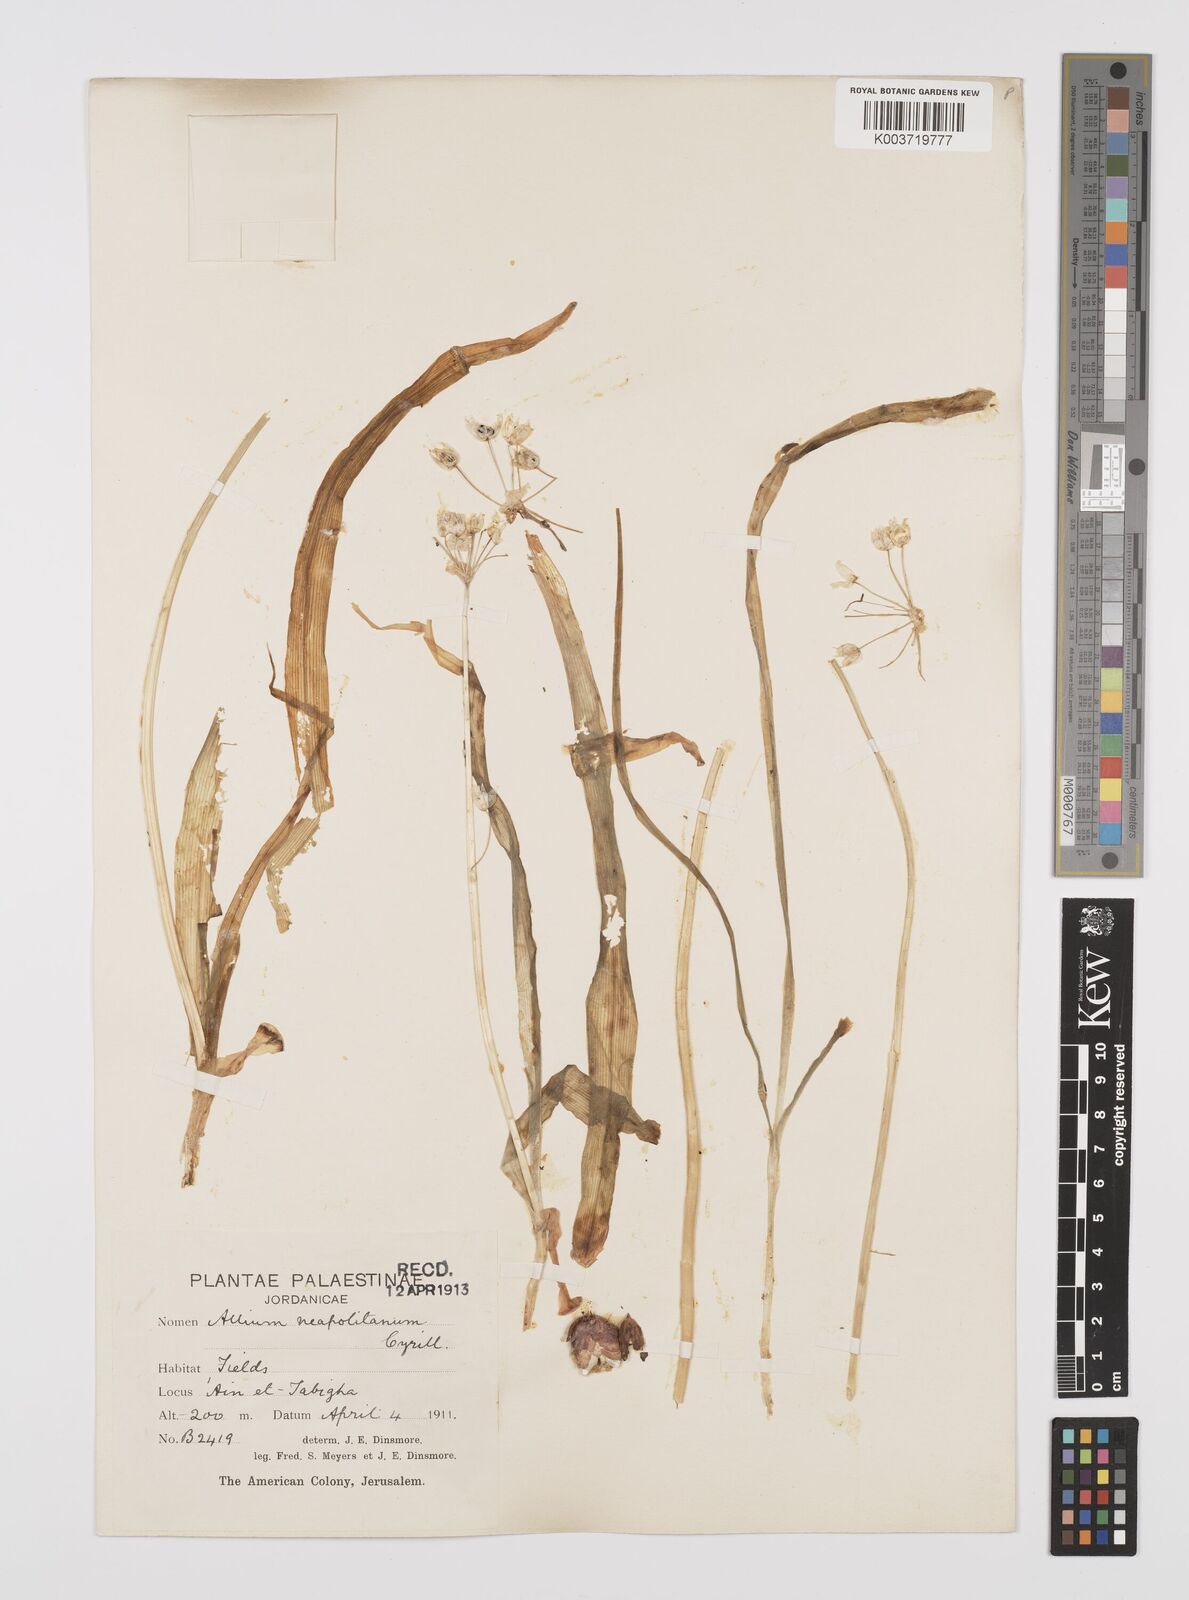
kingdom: Plantae
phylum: Tracheophyta
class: Liliopsida
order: Asparagales
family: Amaryllidaceae
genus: Allium
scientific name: Allium neapolitanum
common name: Neapolitan garlic
